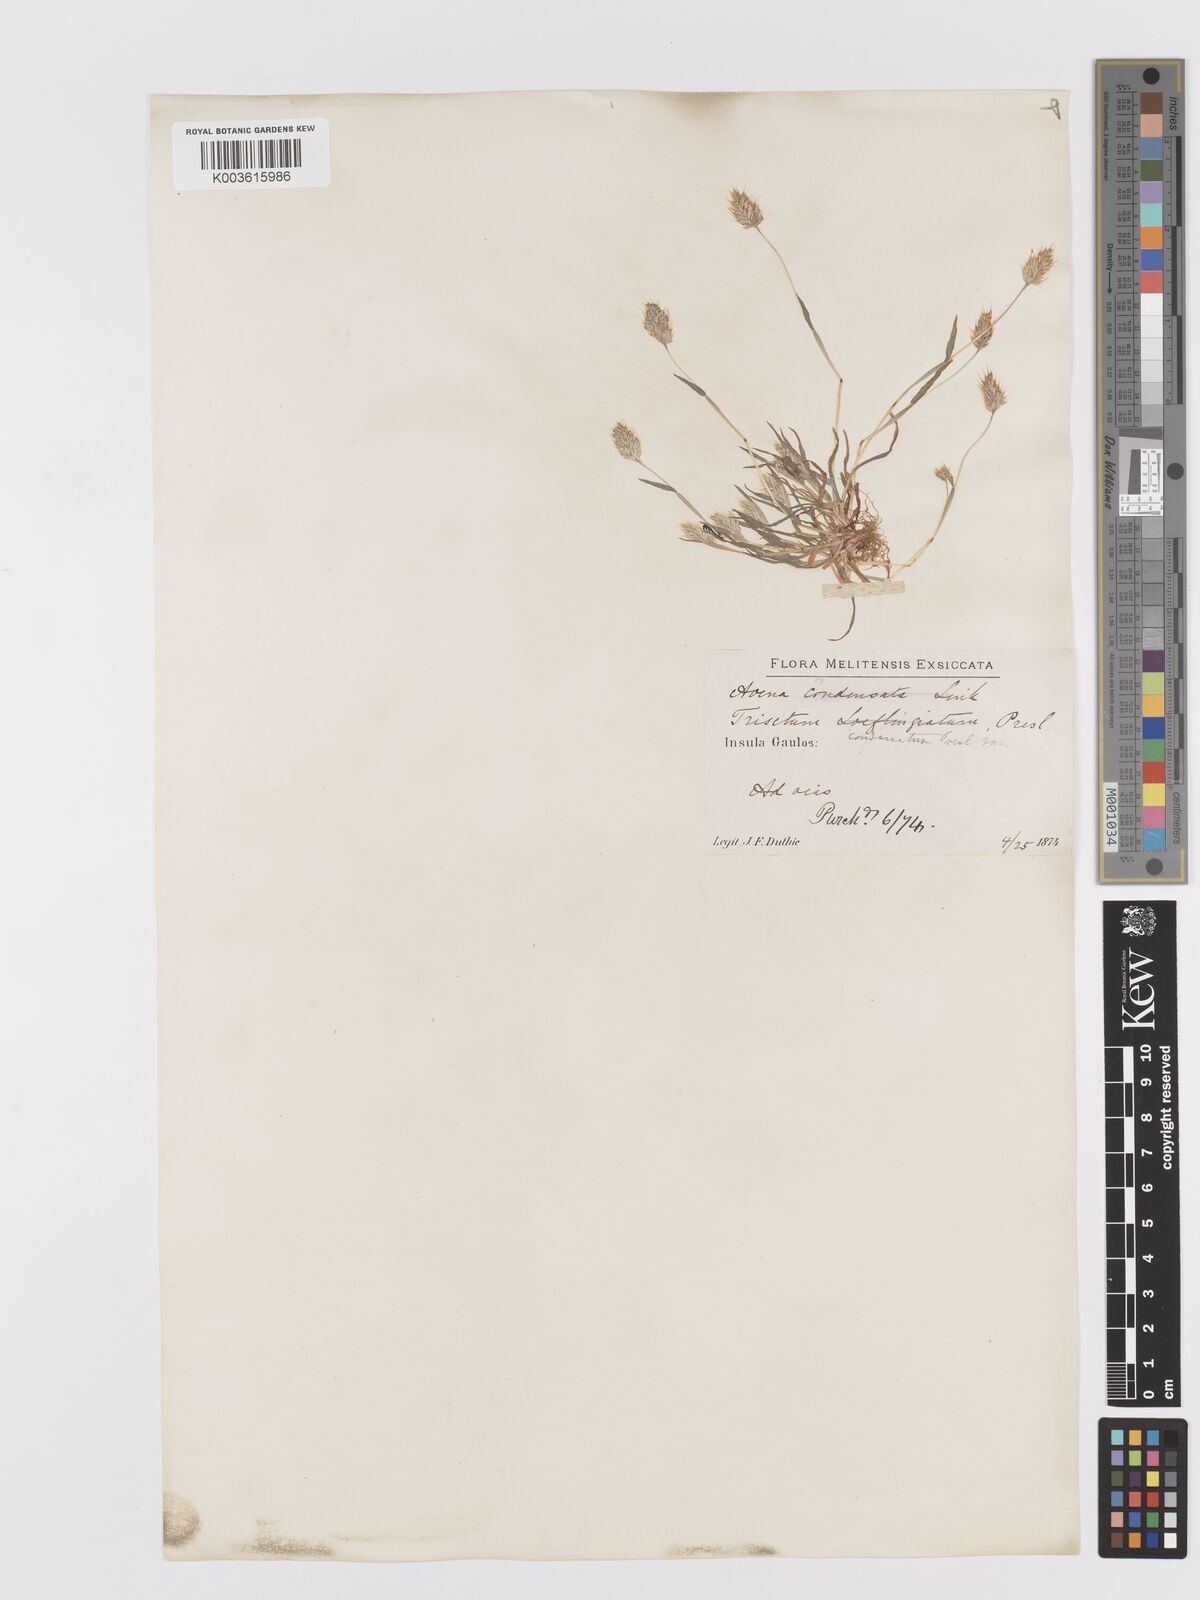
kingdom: Plantae
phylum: Tracheophyta
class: Liliopsida
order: Poales
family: Poaceae
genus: Trisetaria
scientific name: Trisetaria aurea
